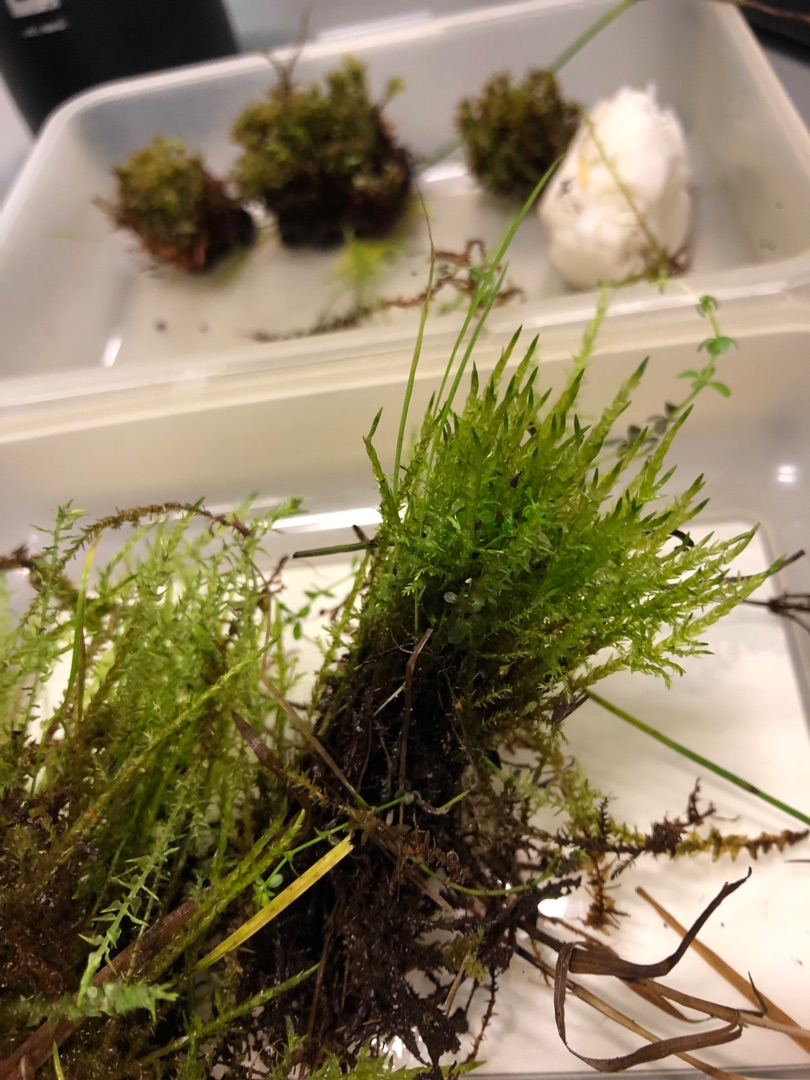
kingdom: Plantae
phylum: Bryophyta
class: Bryopsida
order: Hypnales
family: Calliergonaceae
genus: Calliergon
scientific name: Calliergon cordifolium
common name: Almindelig skebladsmos
